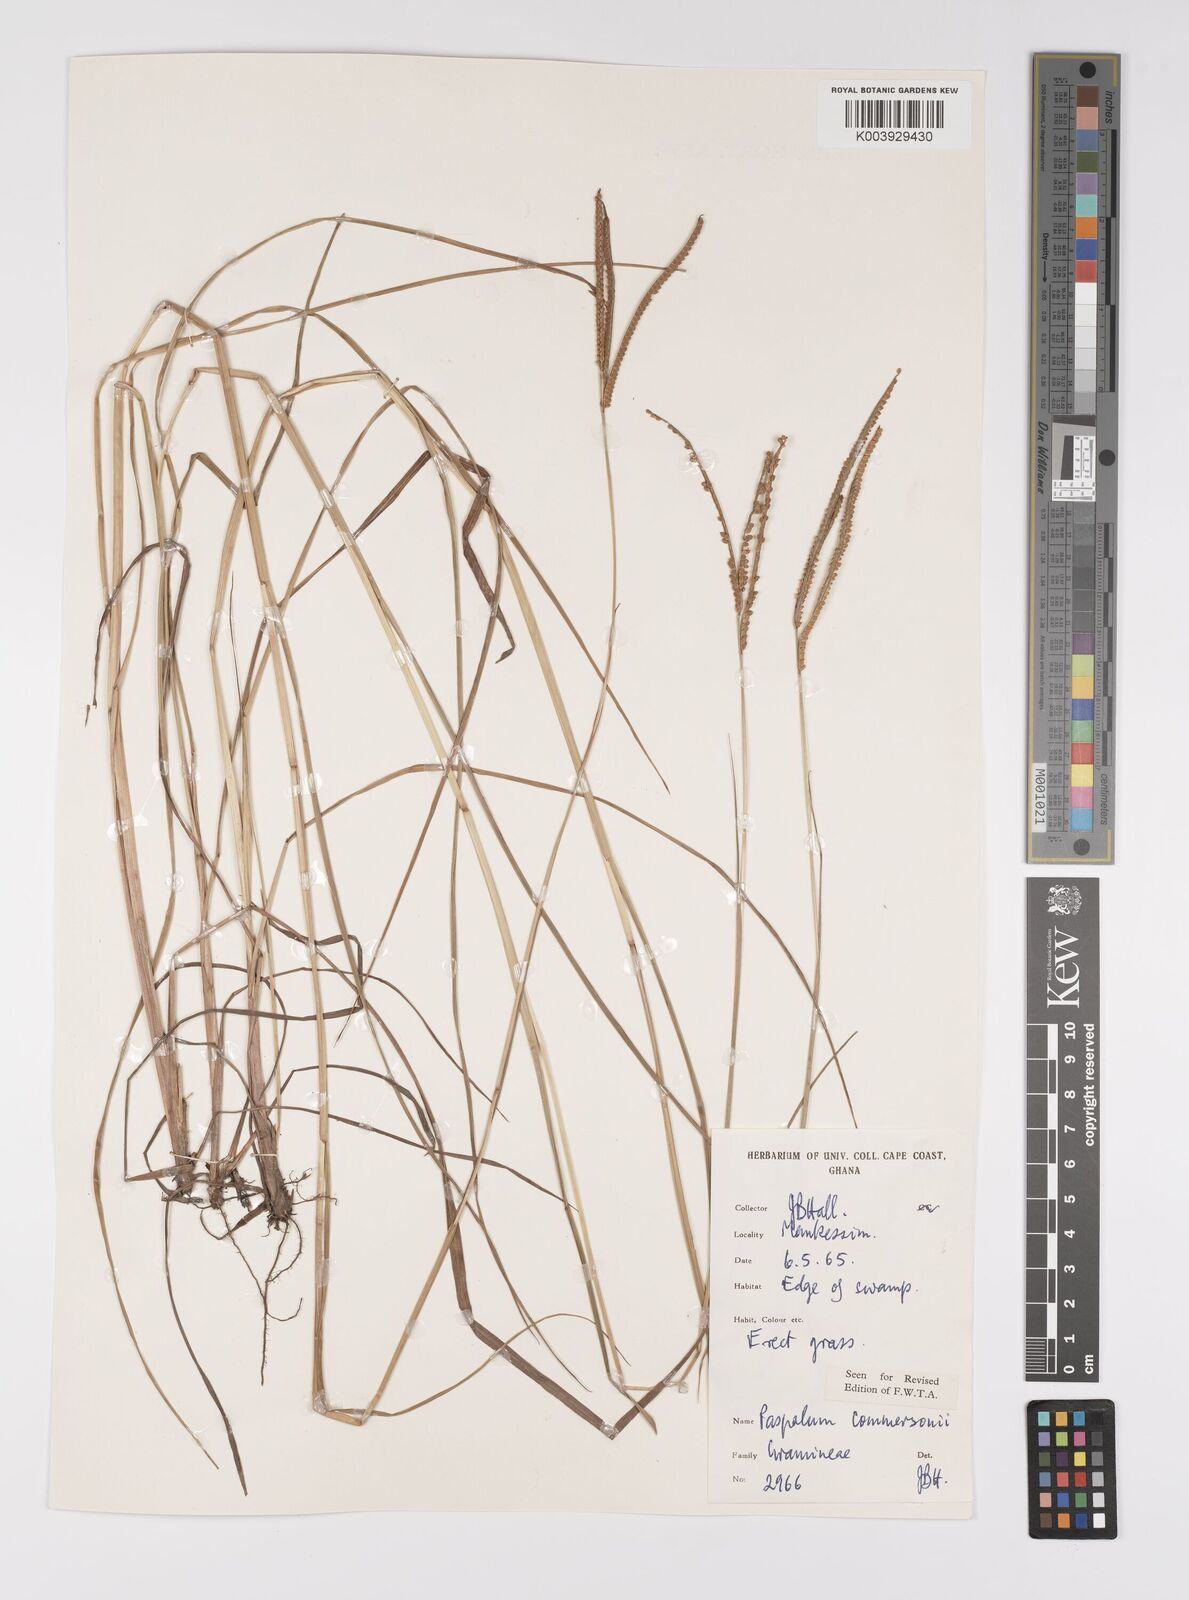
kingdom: Plantae
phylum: Tracheophyta
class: Liliopsida
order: Poales
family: Poaceae
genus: Paspalum
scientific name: Paspalum scrobiculatum
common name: Kodo millet
